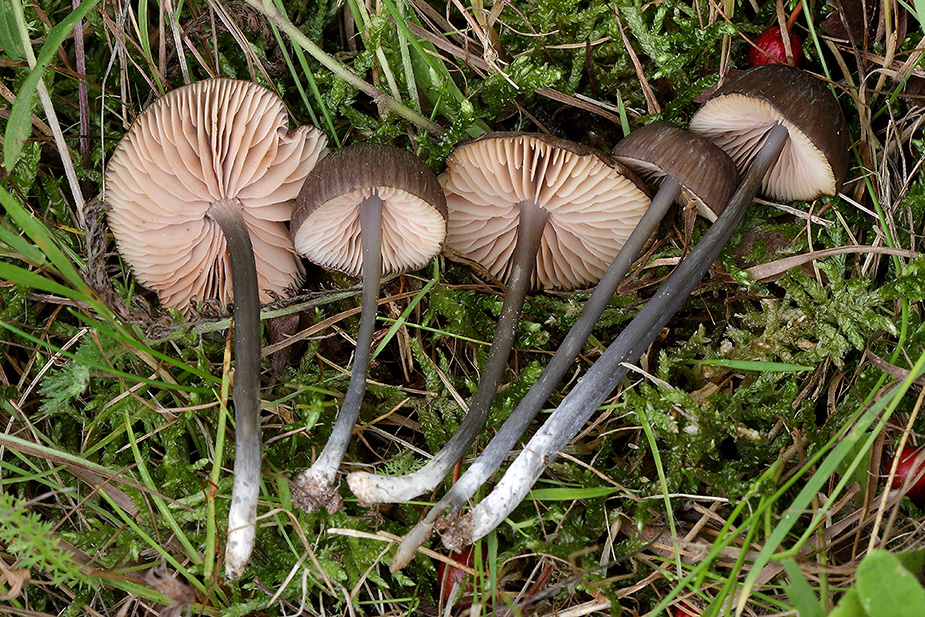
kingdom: Fungi
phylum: Basidiomycota
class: Agaricomycetes
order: Agaricales
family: Entolomataceae
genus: Entoloma
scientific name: Entoloma
